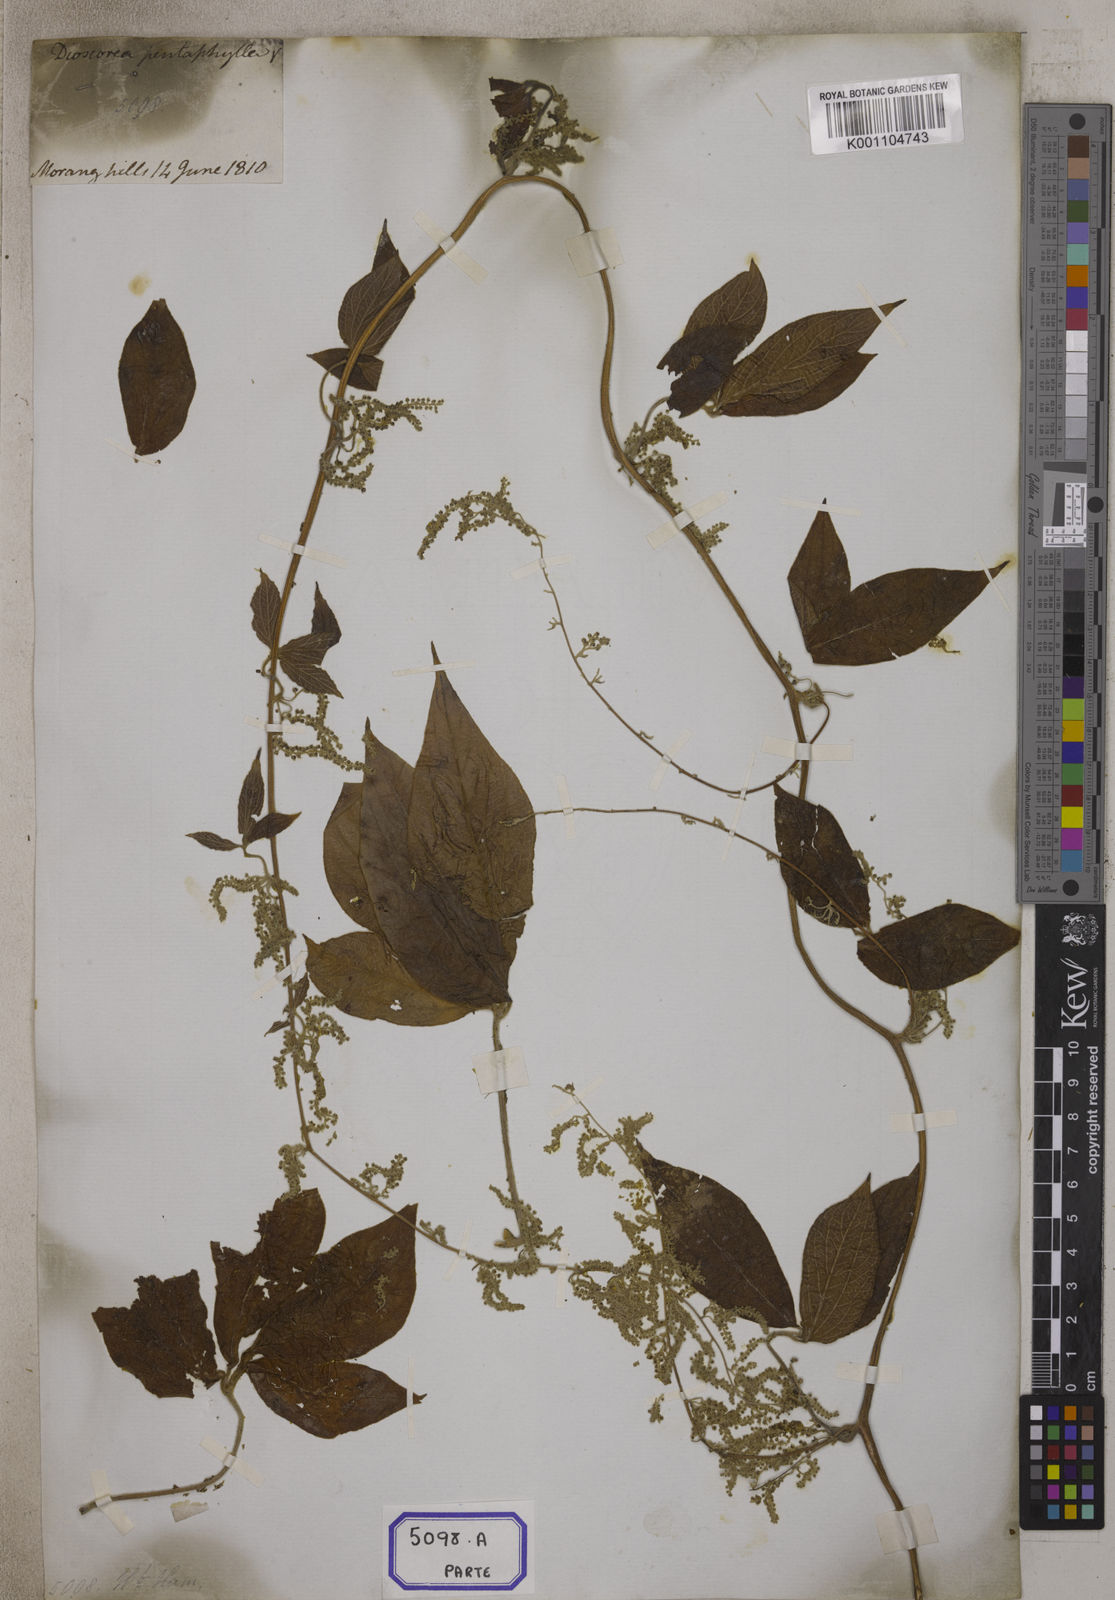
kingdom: Plantae
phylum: Tracheophyta
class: Liliopsida
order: Dioscoreales
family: Dioscoreaceae
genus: Dioscorea
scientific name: Dioscorea
